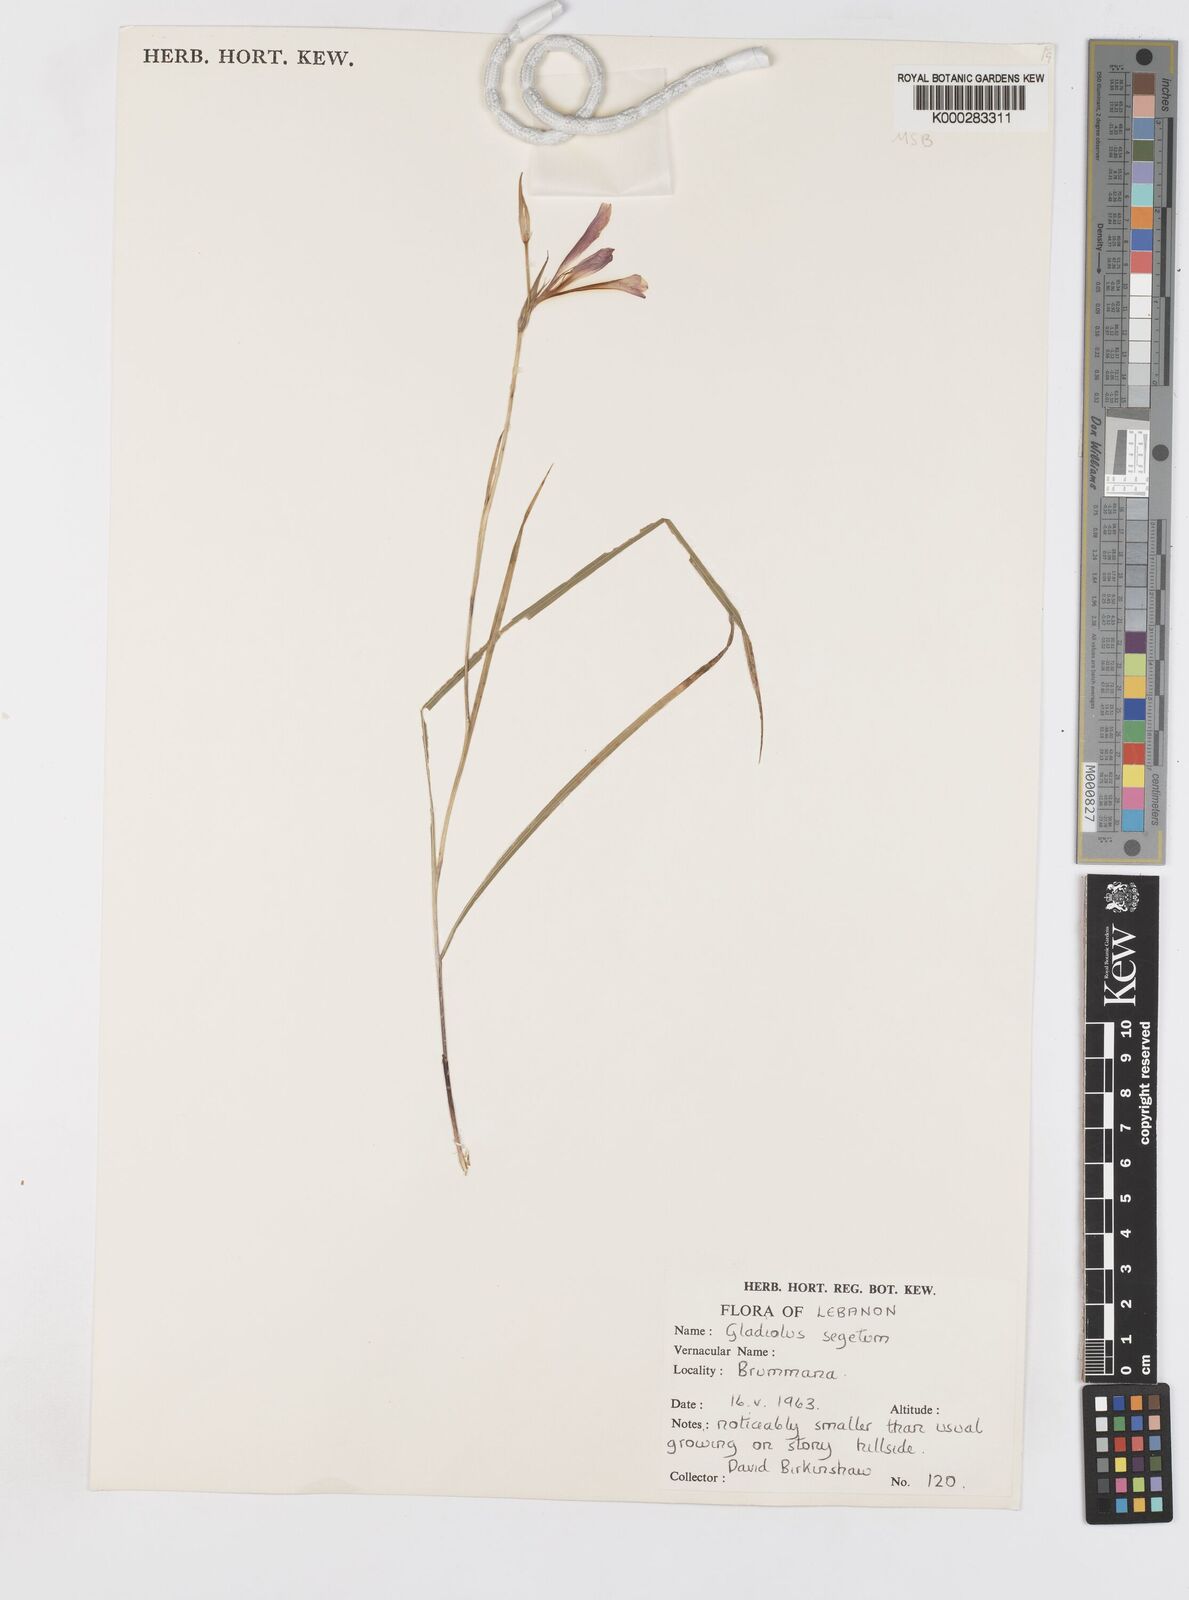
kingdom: Plantae
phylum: Tracheophyta
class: Liliopsida
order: Asparagales
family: Iridaceae
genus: Gladiolus
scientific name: Gladiolus italicus
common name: Field gladiolus
